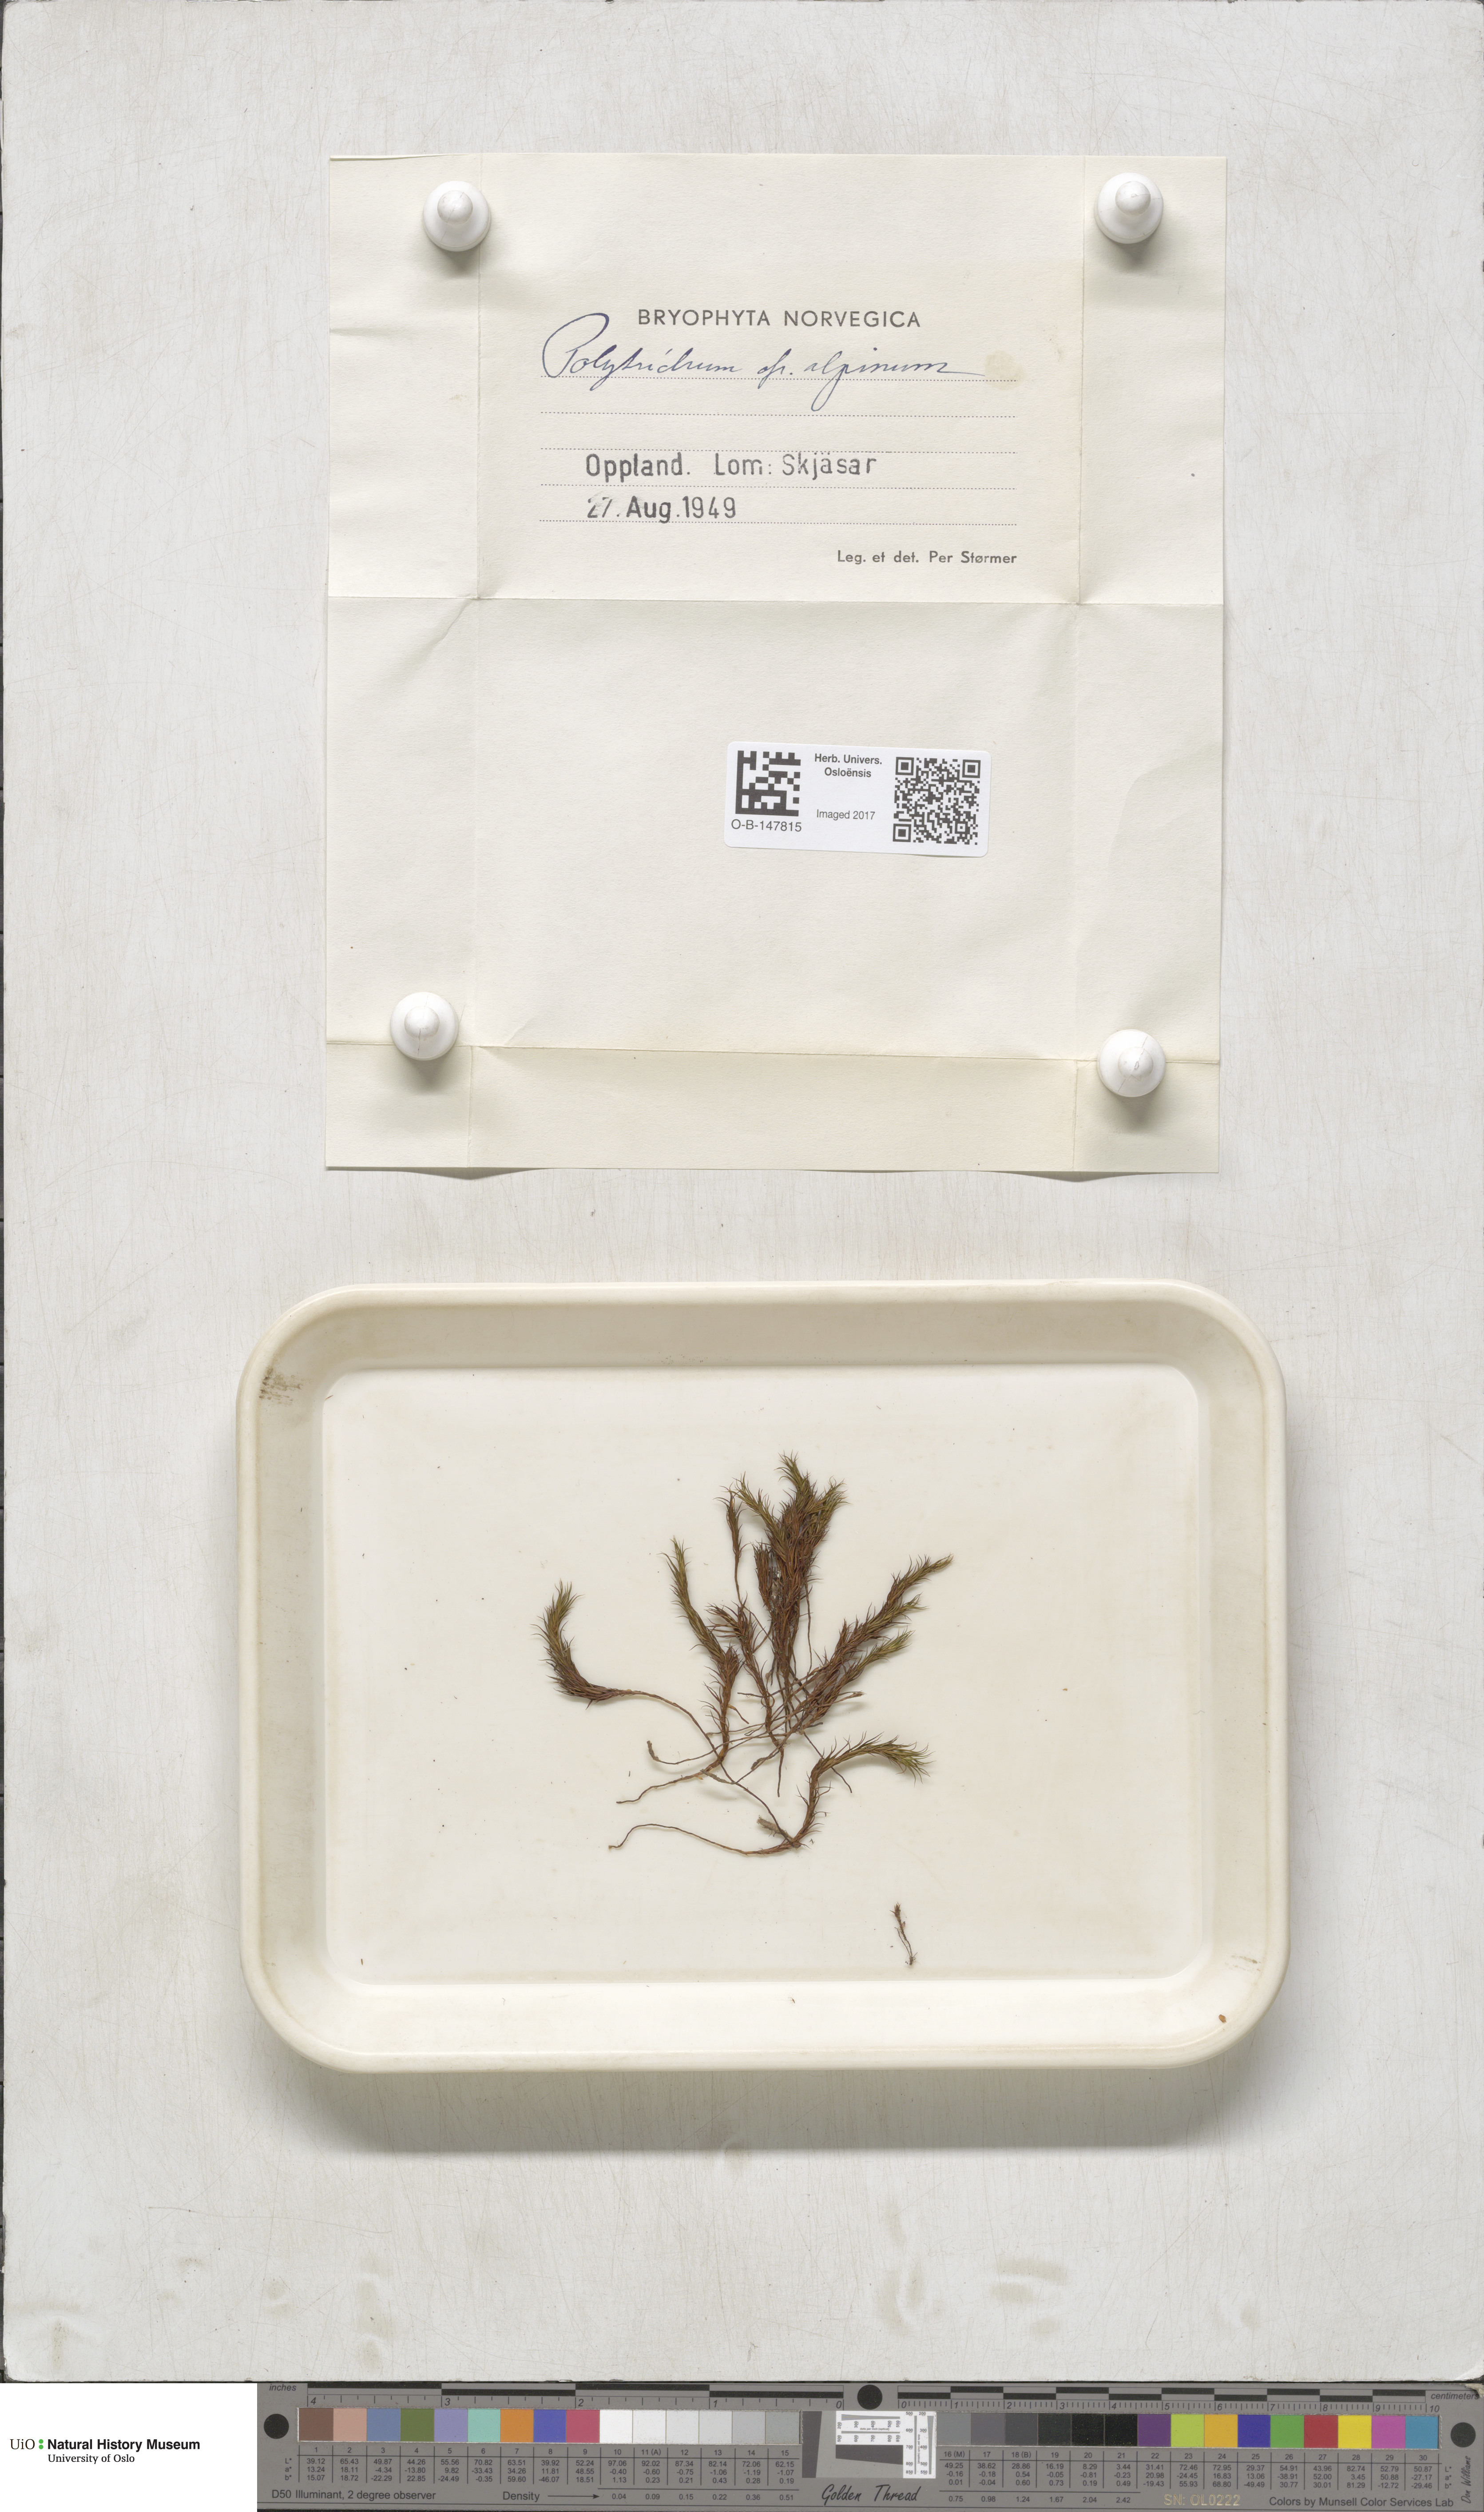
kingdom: Plantae
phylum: Bryophyta
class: Polytrichopsida
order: Polytrichales
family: Polytrichaceae
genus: Polytrichastrum
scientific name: Polytrichastrum alpinum
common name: Alpine haircap
